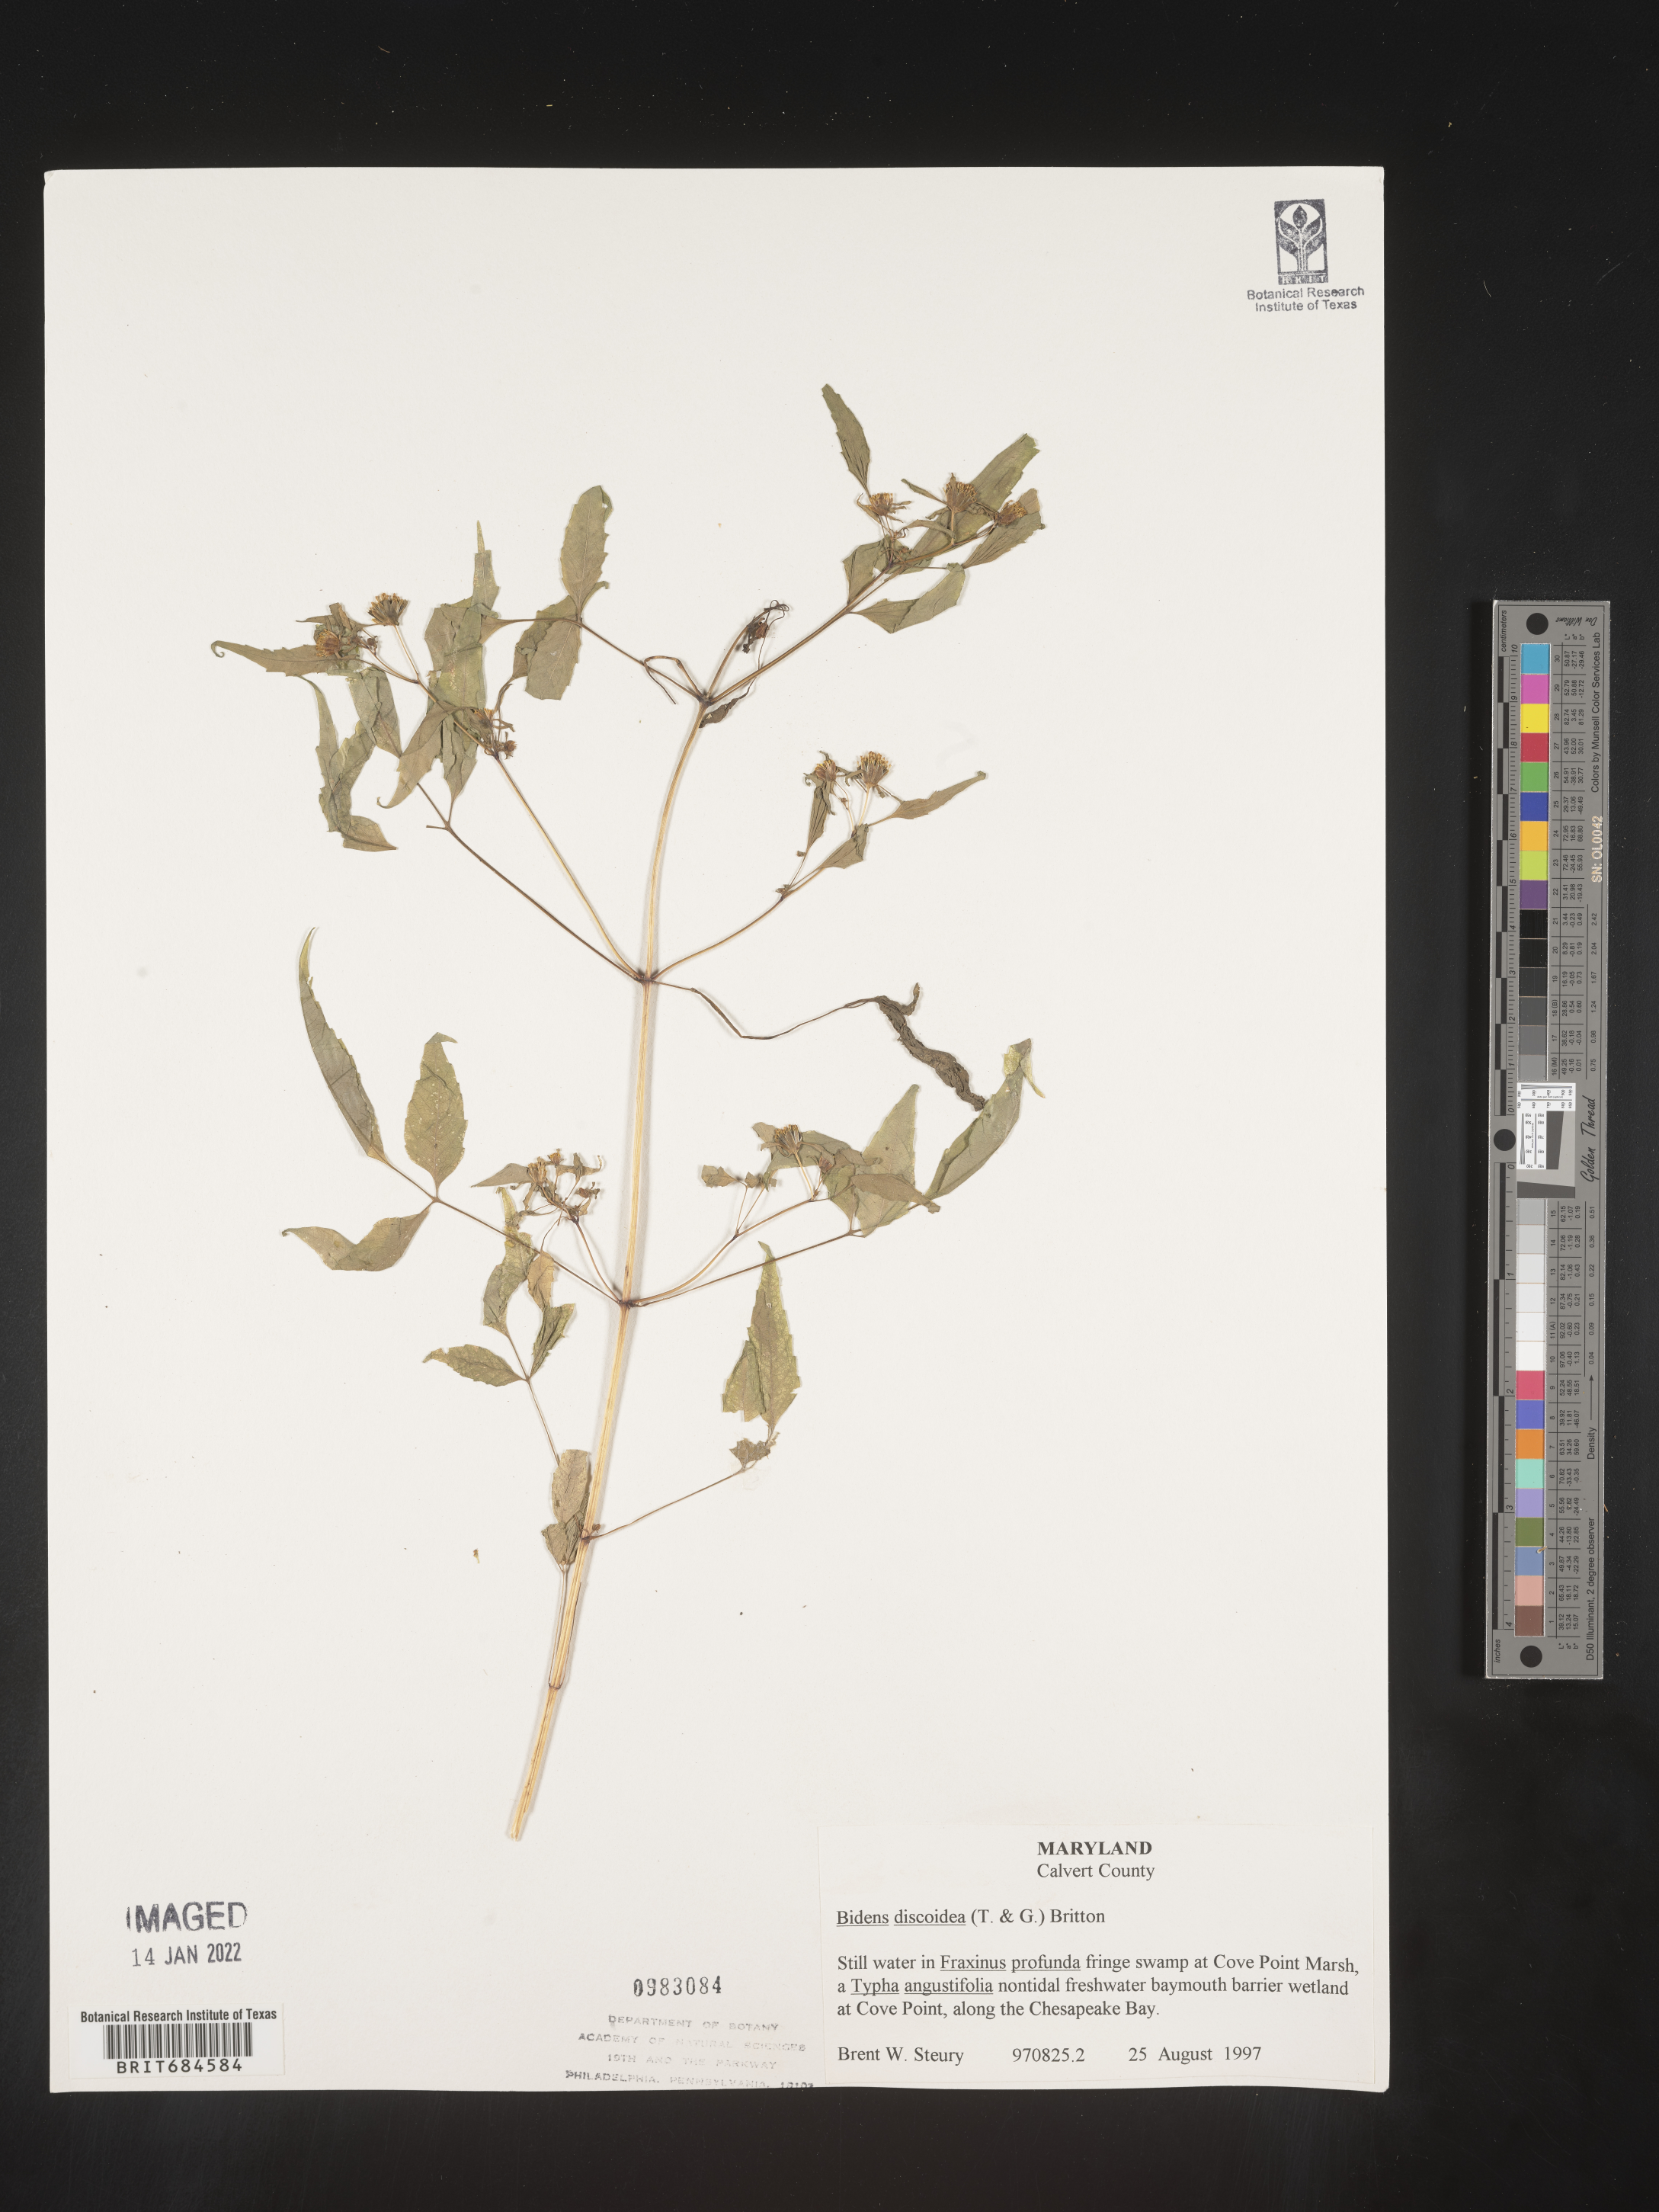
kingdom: Plantae
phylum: Tracheophyta
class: Magnoliopsida
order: Asterales
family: Asteraceae
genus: Bidens
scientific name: Bidens discoidea
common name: Discoide beggarticks
